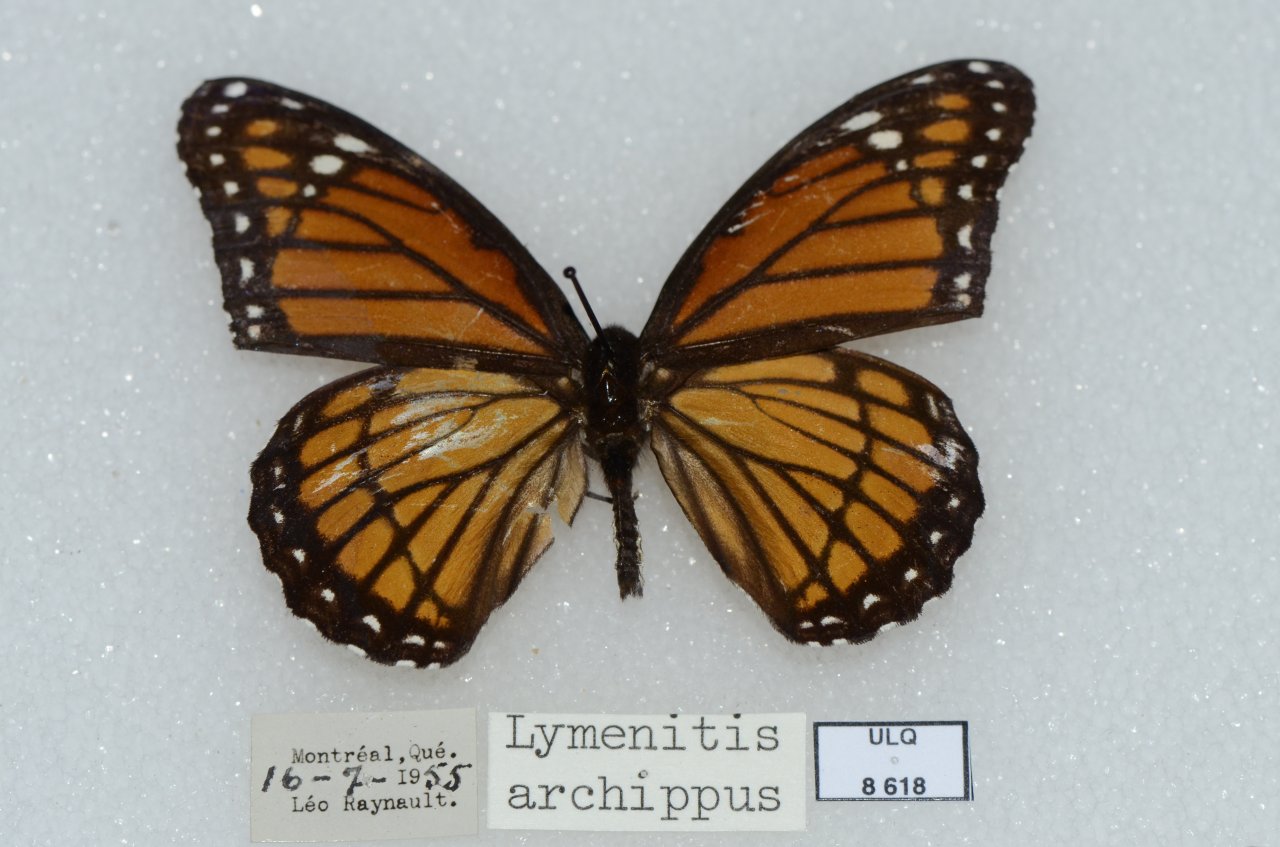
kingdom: Animalia
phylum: Arthropoda
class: Insecta
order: Lepidoptera
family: Nymphalidae
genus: Limenitis
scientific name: Limenitis archippus
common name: Viceroy
